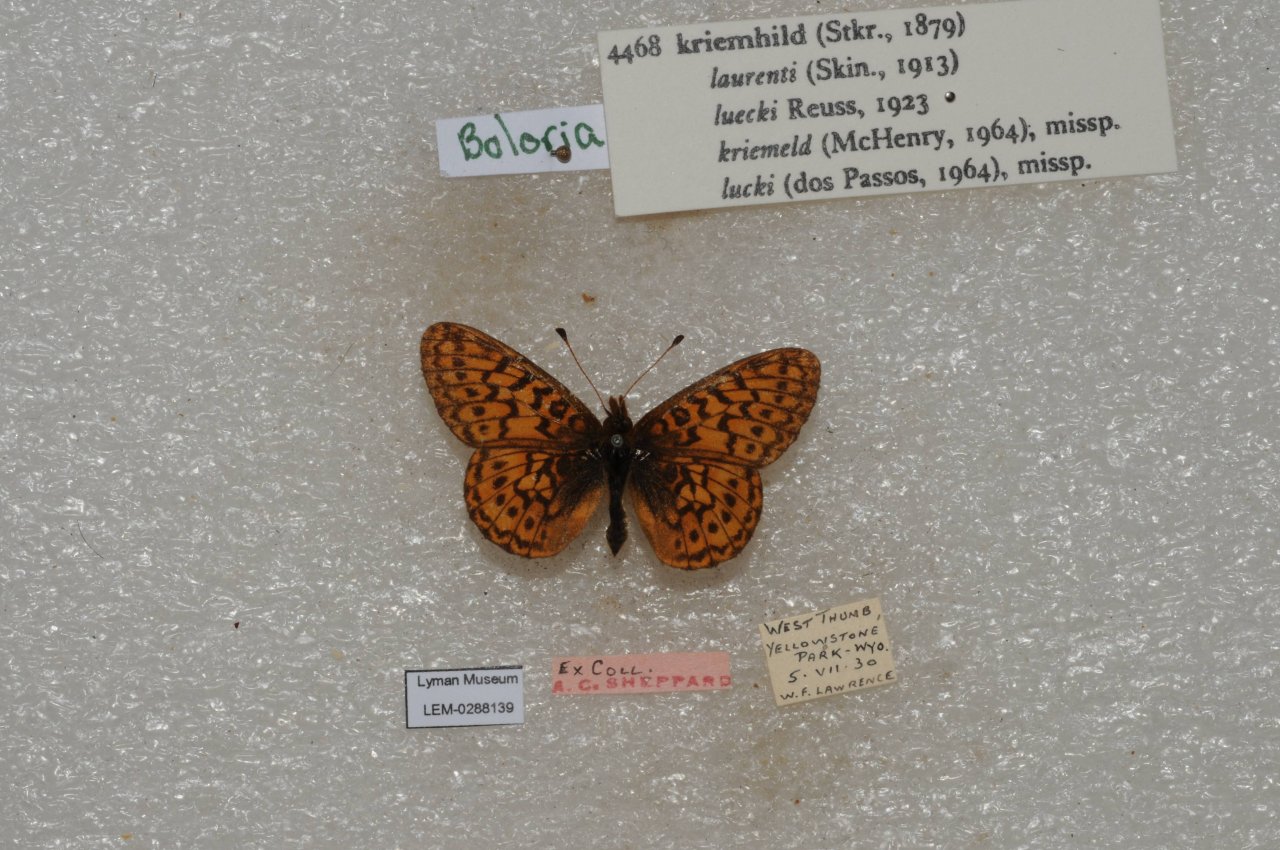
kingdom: Animalia
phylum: Arthropoda
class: Insecta
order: Lepidoptera
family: Nymphalidae
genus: Boloria
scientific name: Boloria kriemhild
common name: Relict Fritillary
